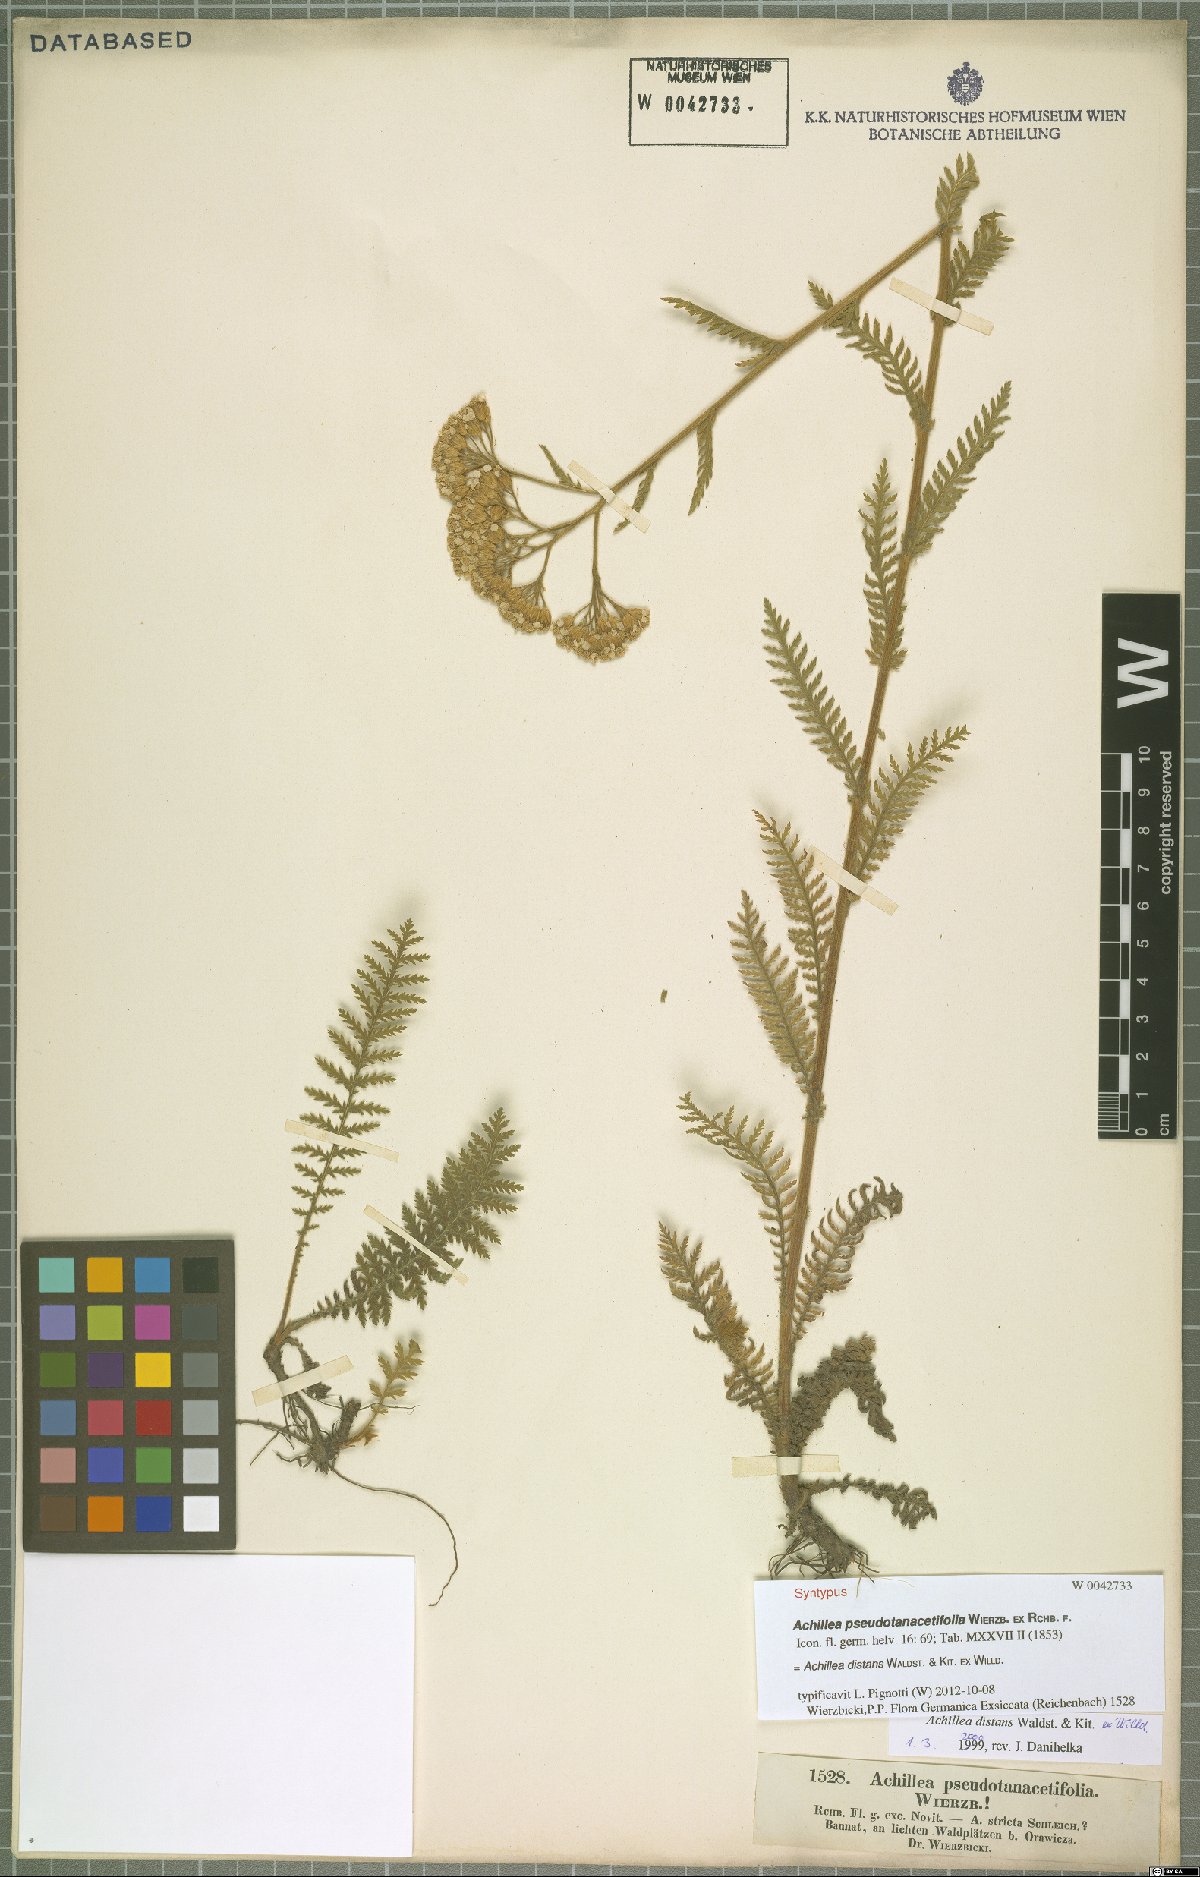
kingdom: Plantae
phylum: Tracheophyta
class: Magnoliopsida
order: Asterales
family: Asteraceae
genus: Achillea
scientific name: Achillea distans
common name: Tall yarrow
